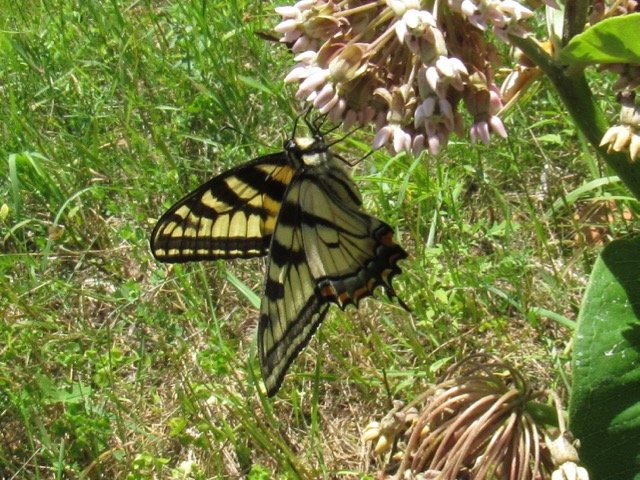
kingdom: Animalia
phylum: Arthropoda
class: Insecta
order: Lepidoptera
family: Papilionidae
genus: Pterourus
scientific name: Pterourus
